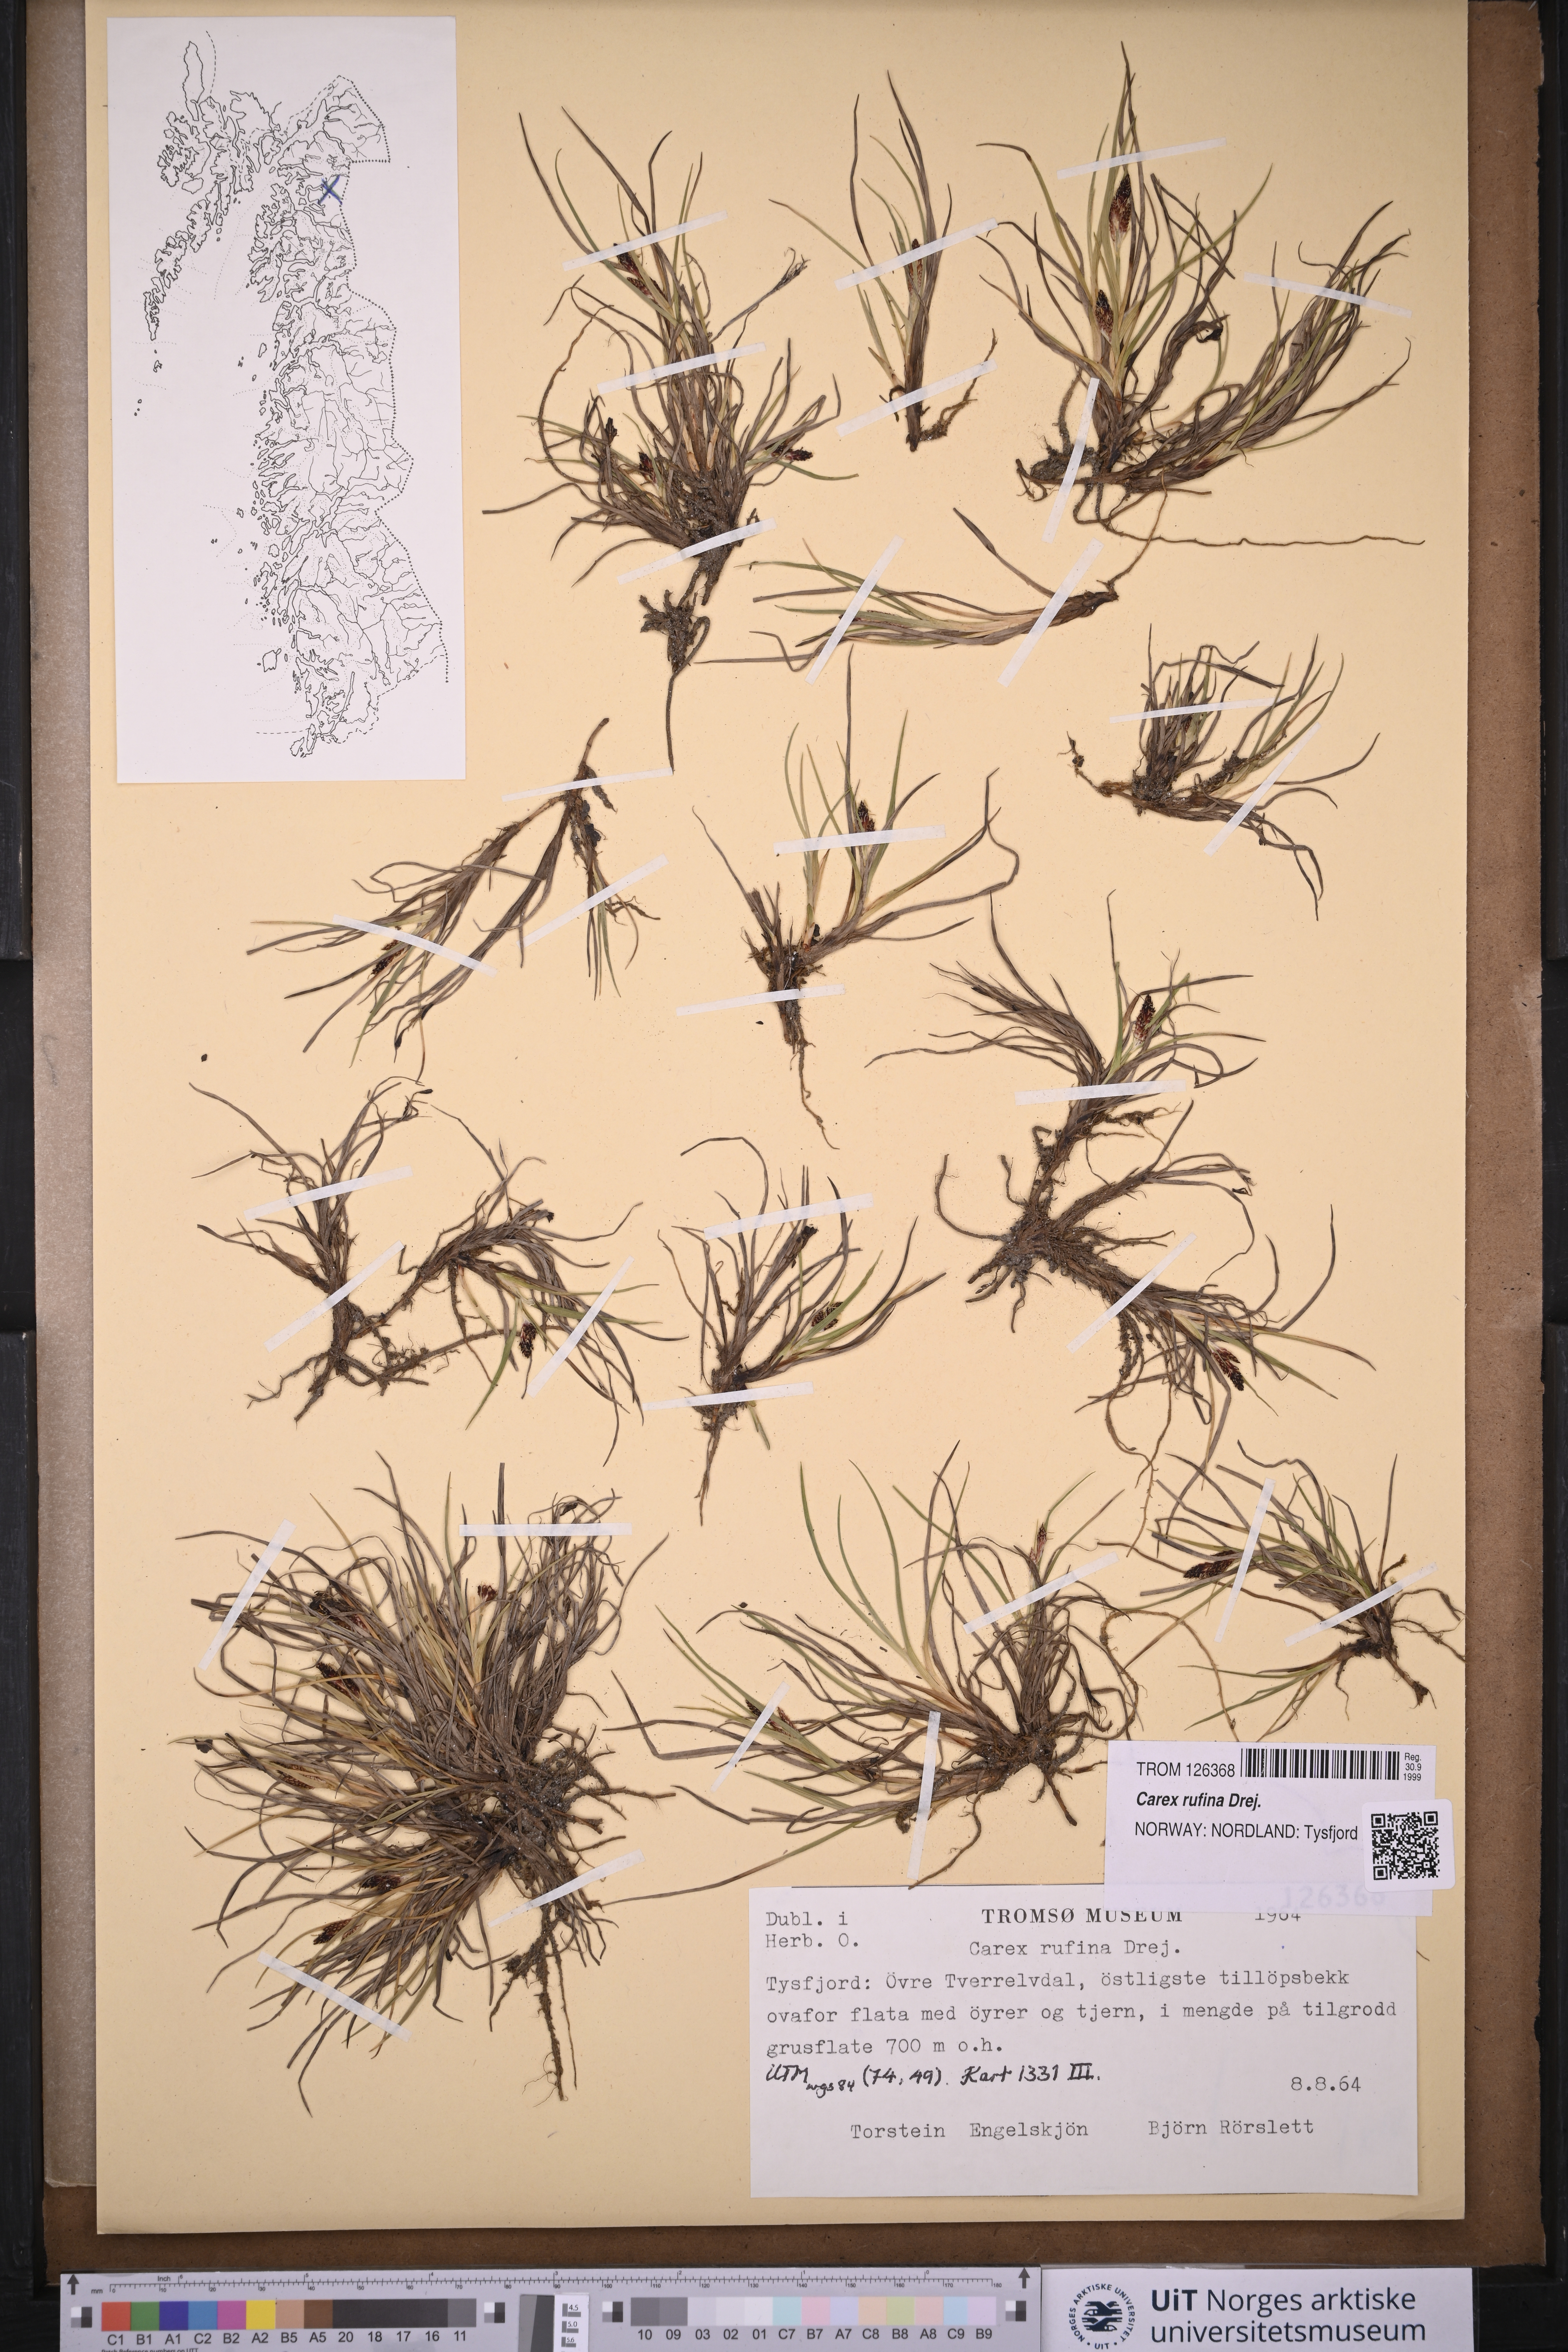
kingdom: Plantae
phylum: Tracheophyta
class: Liliopsida
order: Poales
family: Cyperaceae
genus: Carex
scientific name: Carex rufina
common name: Reddish sedge
